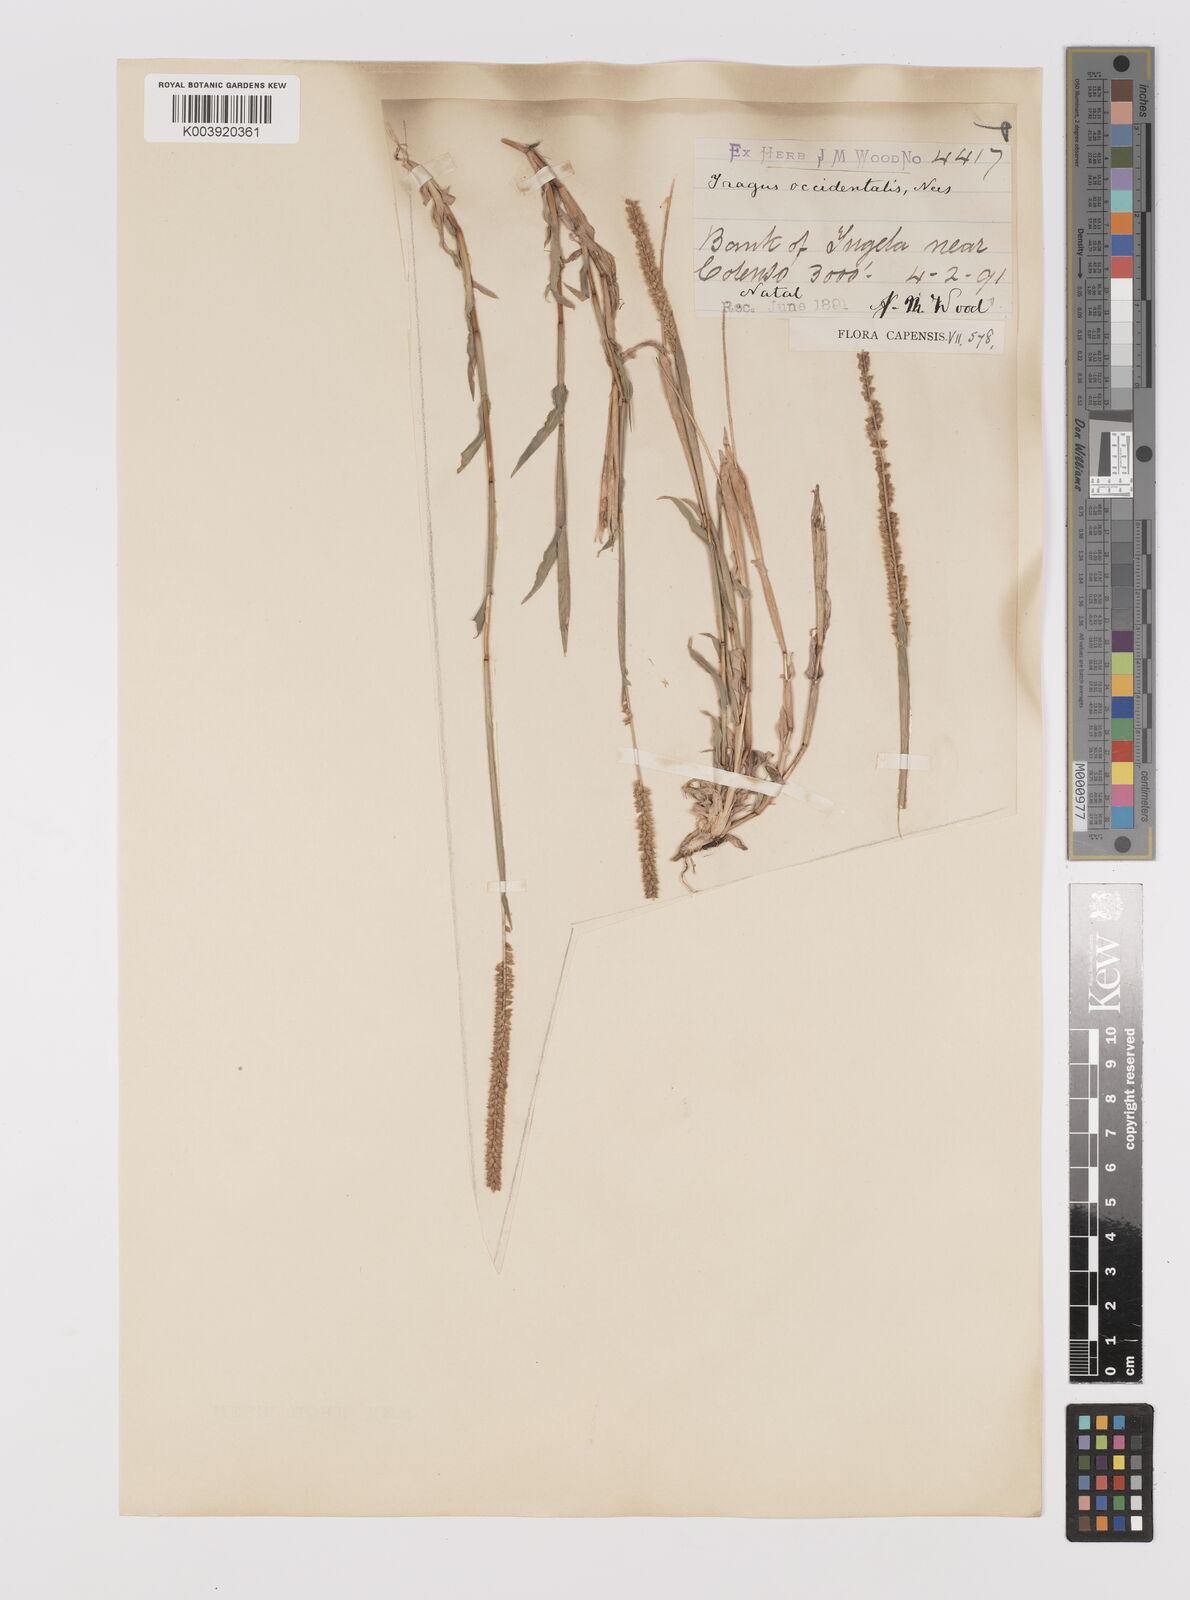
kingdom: Plantae
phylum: Tracheophyta
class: Liliopsida
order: Poales
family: Poaceae
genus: Tragus
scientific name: Tragus berteronianus
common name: African bur-grass
